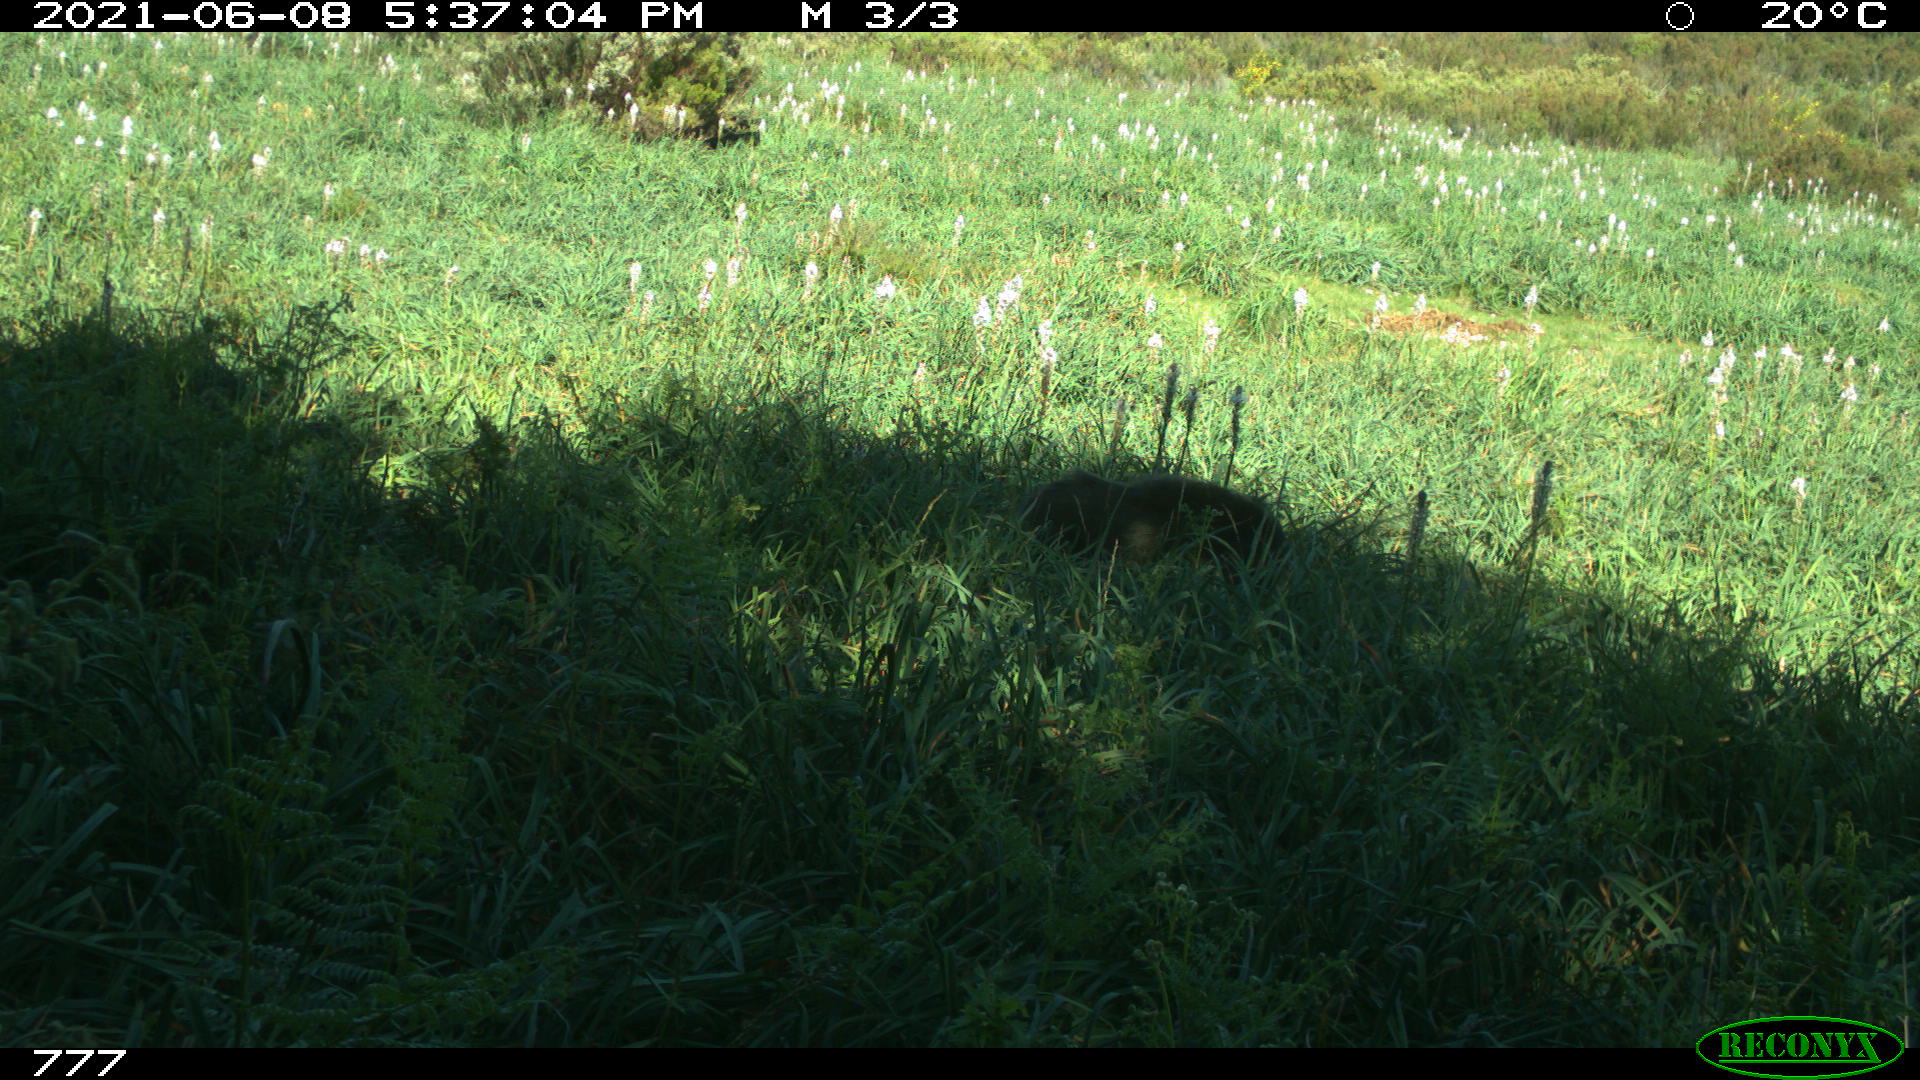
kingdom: Animalia
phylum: Chordata
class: Mammalia
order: Artiodactyla
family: Suidae
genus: Sus
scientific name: Sus scrofa
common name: Wild boar
